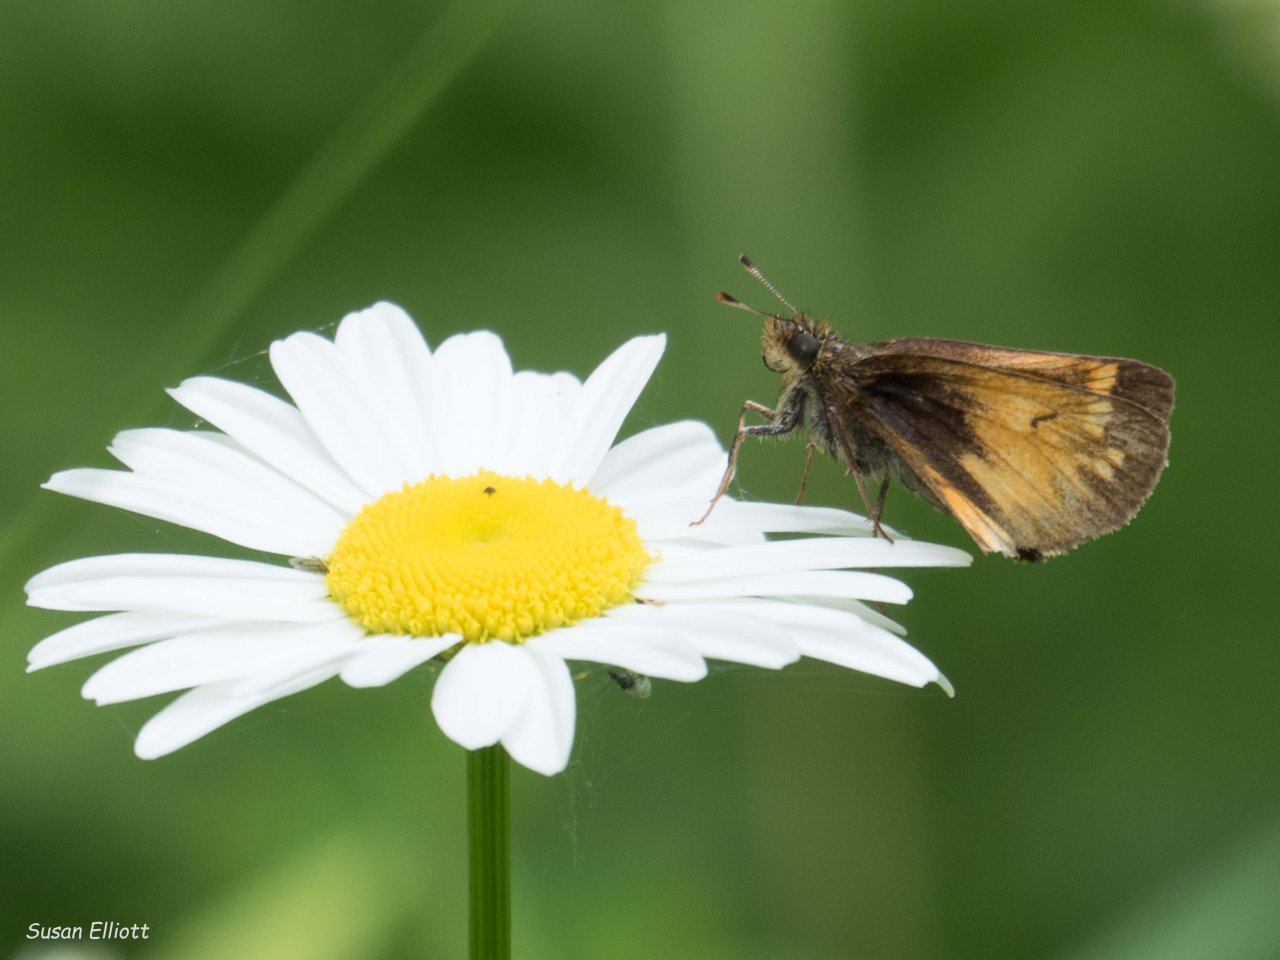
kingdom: Animalia
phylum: Arthropoda
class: Insecta
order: Lepidoptera
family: Hesperiidae
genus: Lon
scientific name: Lon hobomok
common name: Hobomok Skipper
